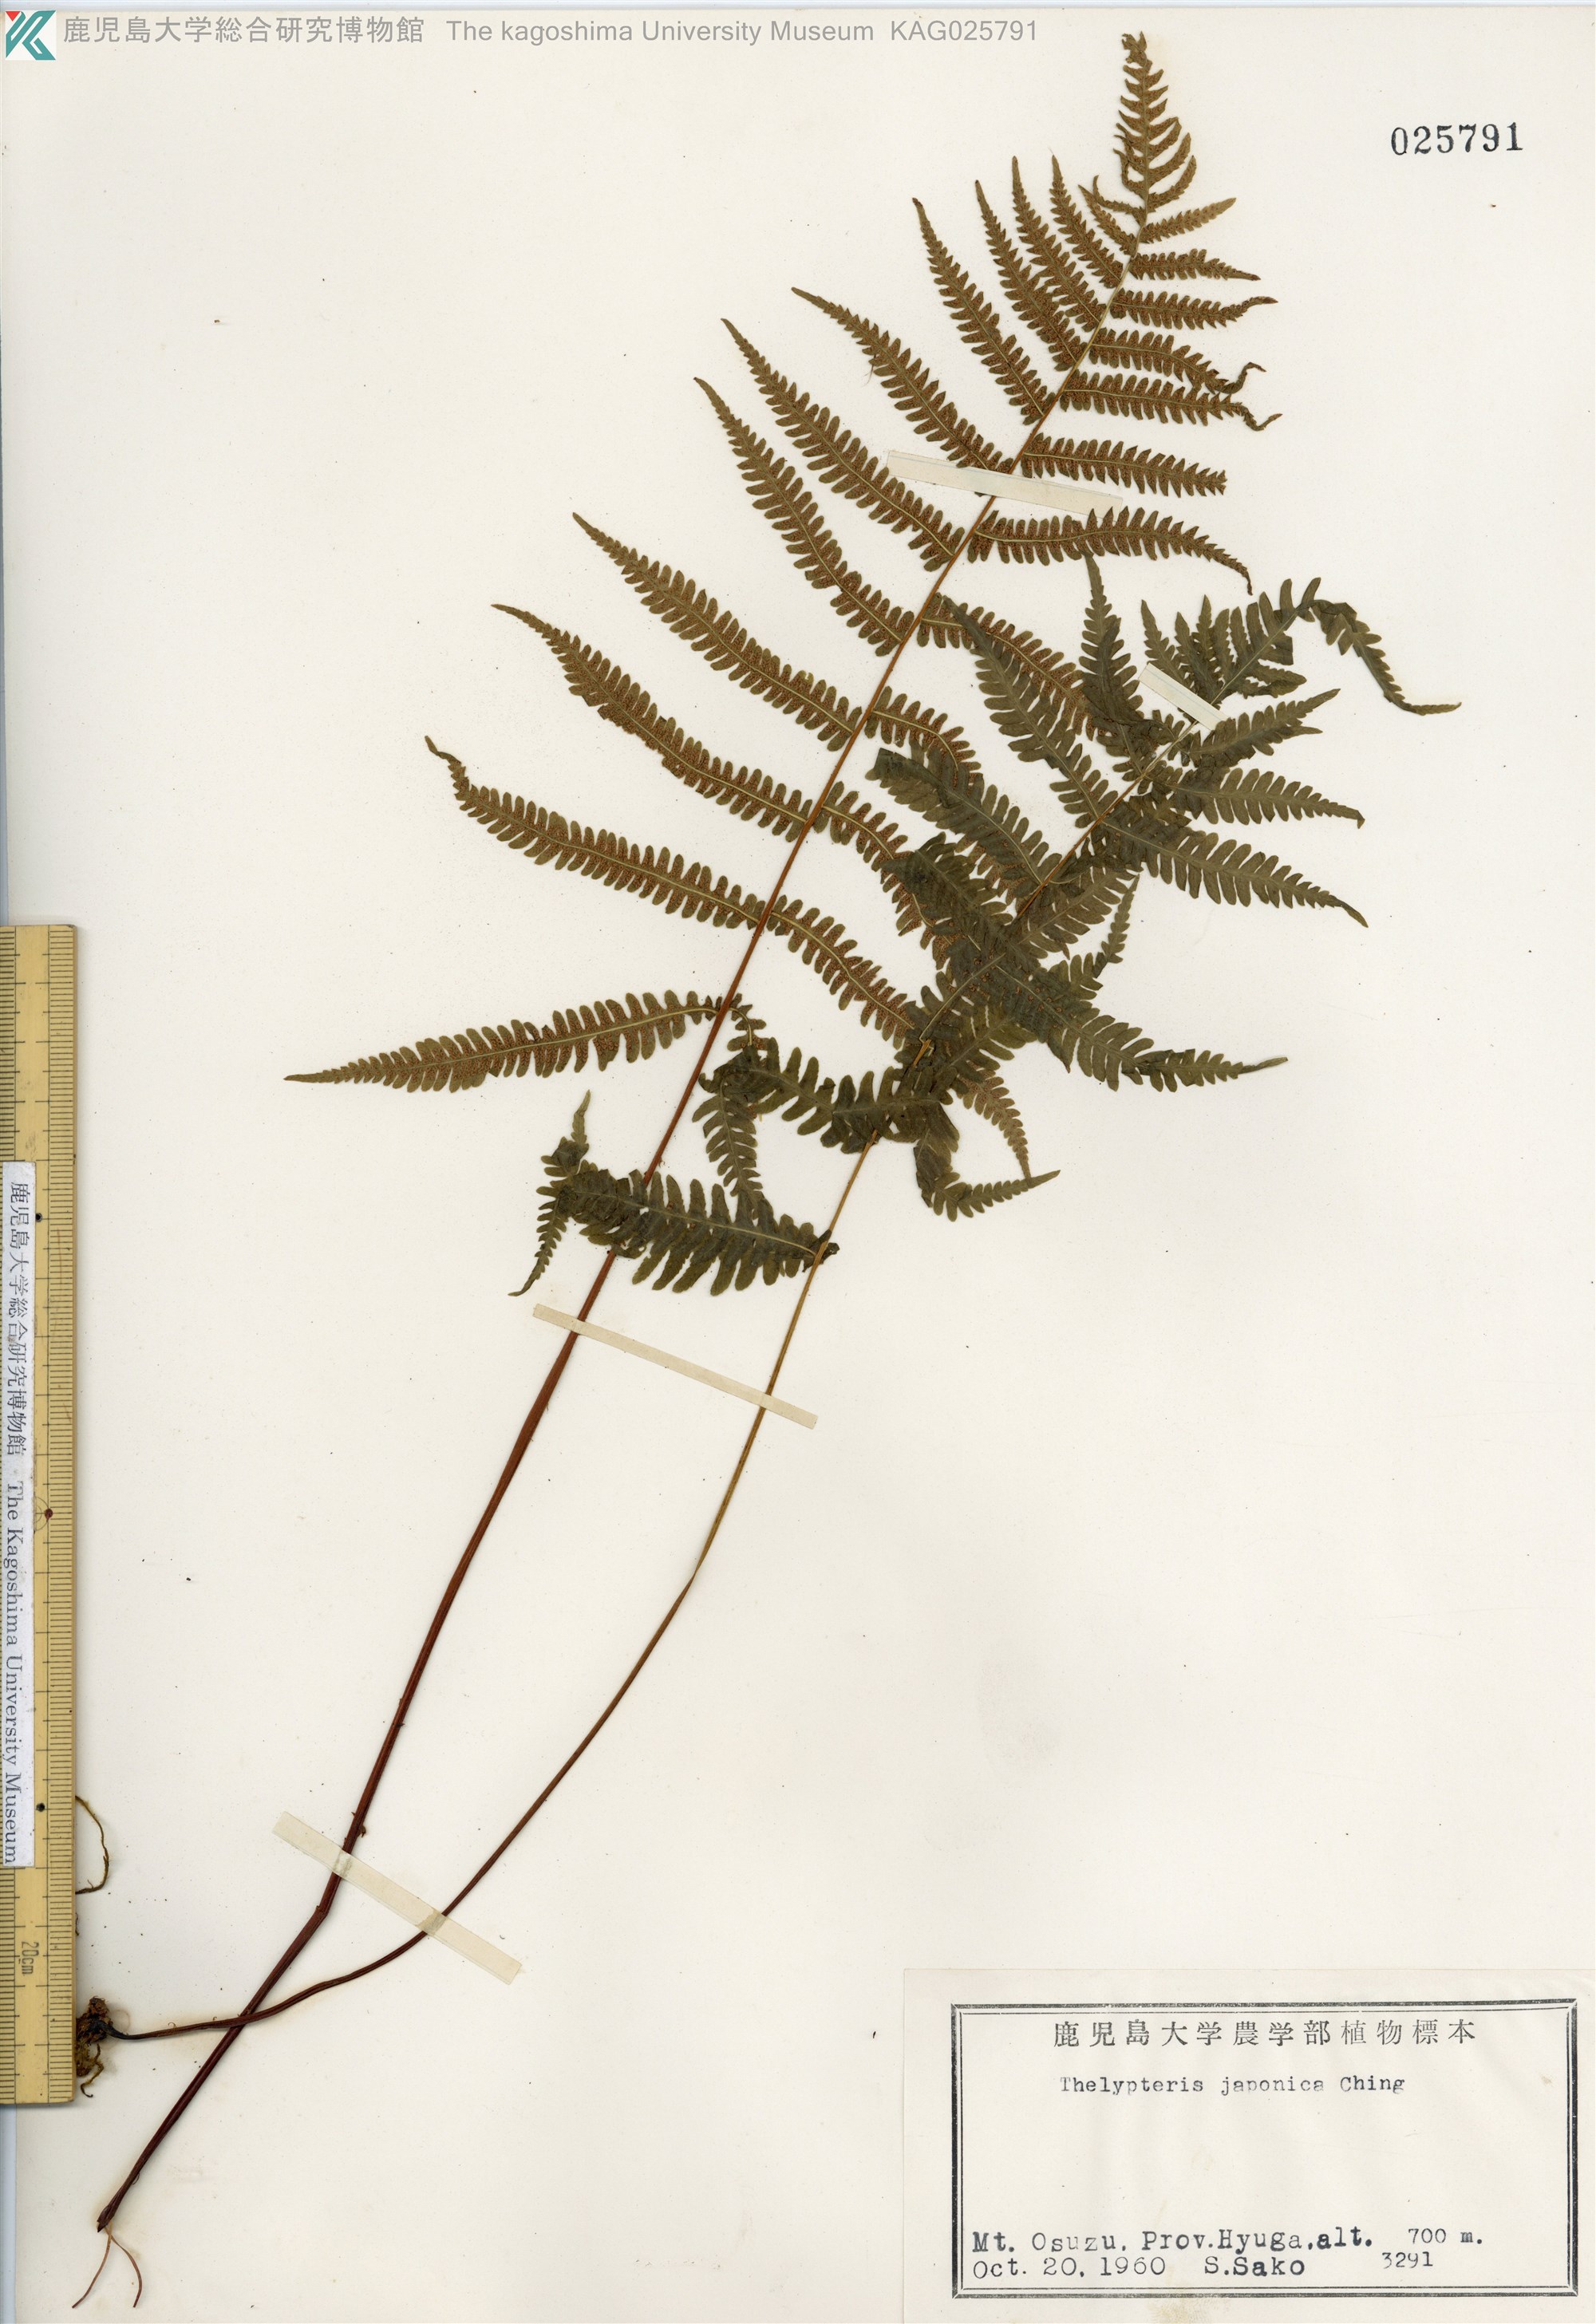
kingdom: Plantae
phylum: Tracheophyta
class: Polypodiopsida
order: Polypodiales
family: Thelypteridaceae
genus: Coryphopteris
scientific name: Coryphopteris japonica
